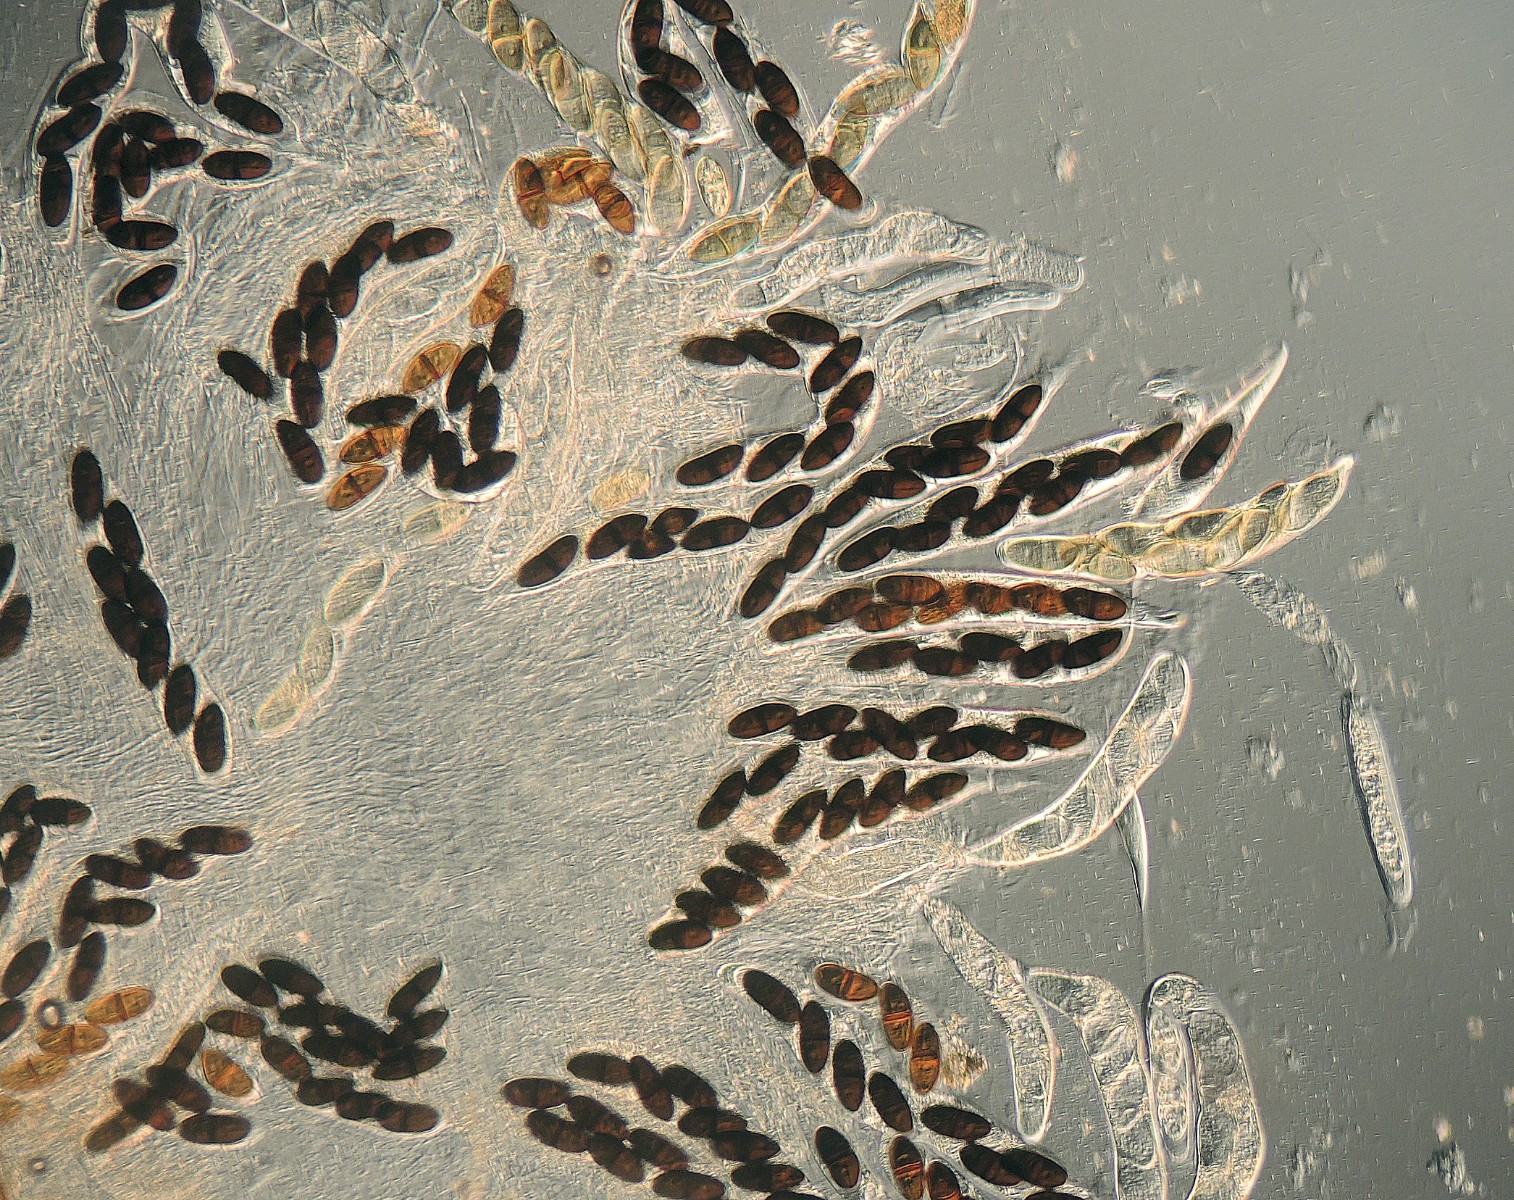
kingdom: Fungi
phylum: Ascomycota
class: Dothideomycetes
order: Pleosporales
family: Delitschiaceae
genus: Delitschia
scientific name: Delitschia winteri
